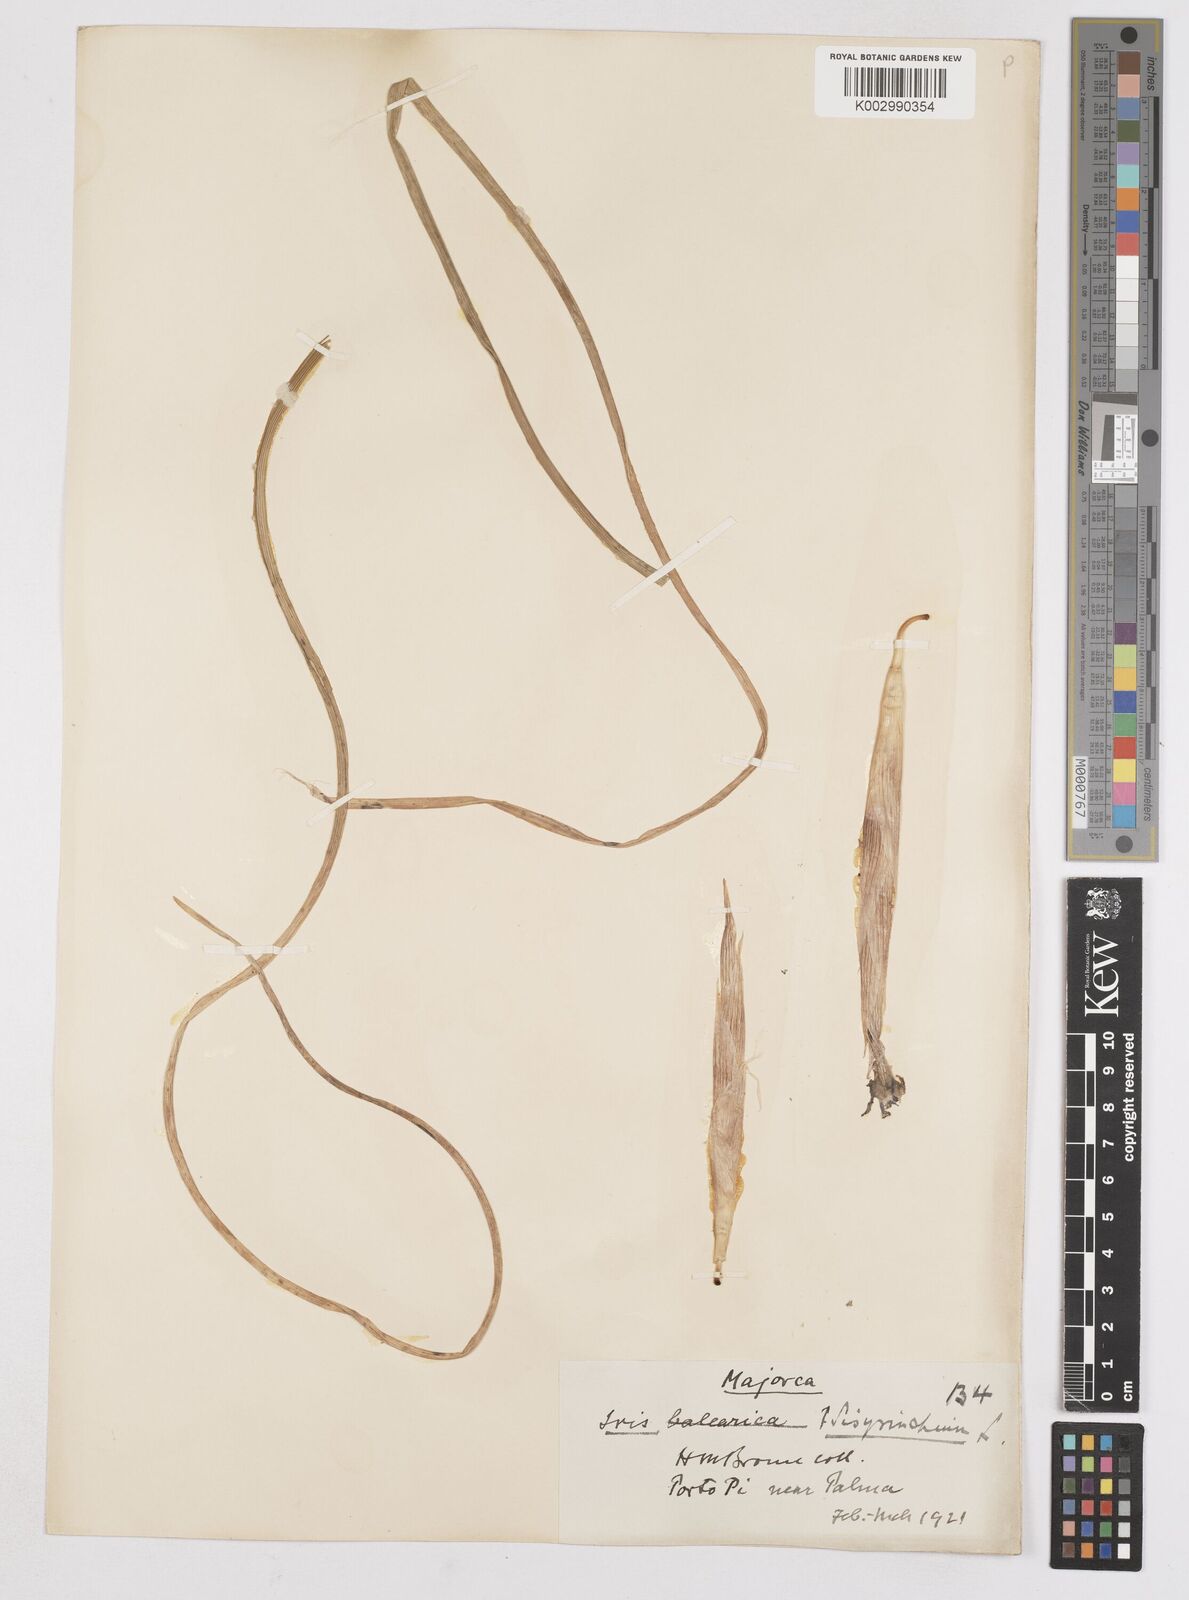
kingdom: Plantae
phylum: Tracheophyta
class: Liliopsida
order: Asparagales
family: Iridaceae
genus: Moraea
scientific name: Moraea sisyrinchium
